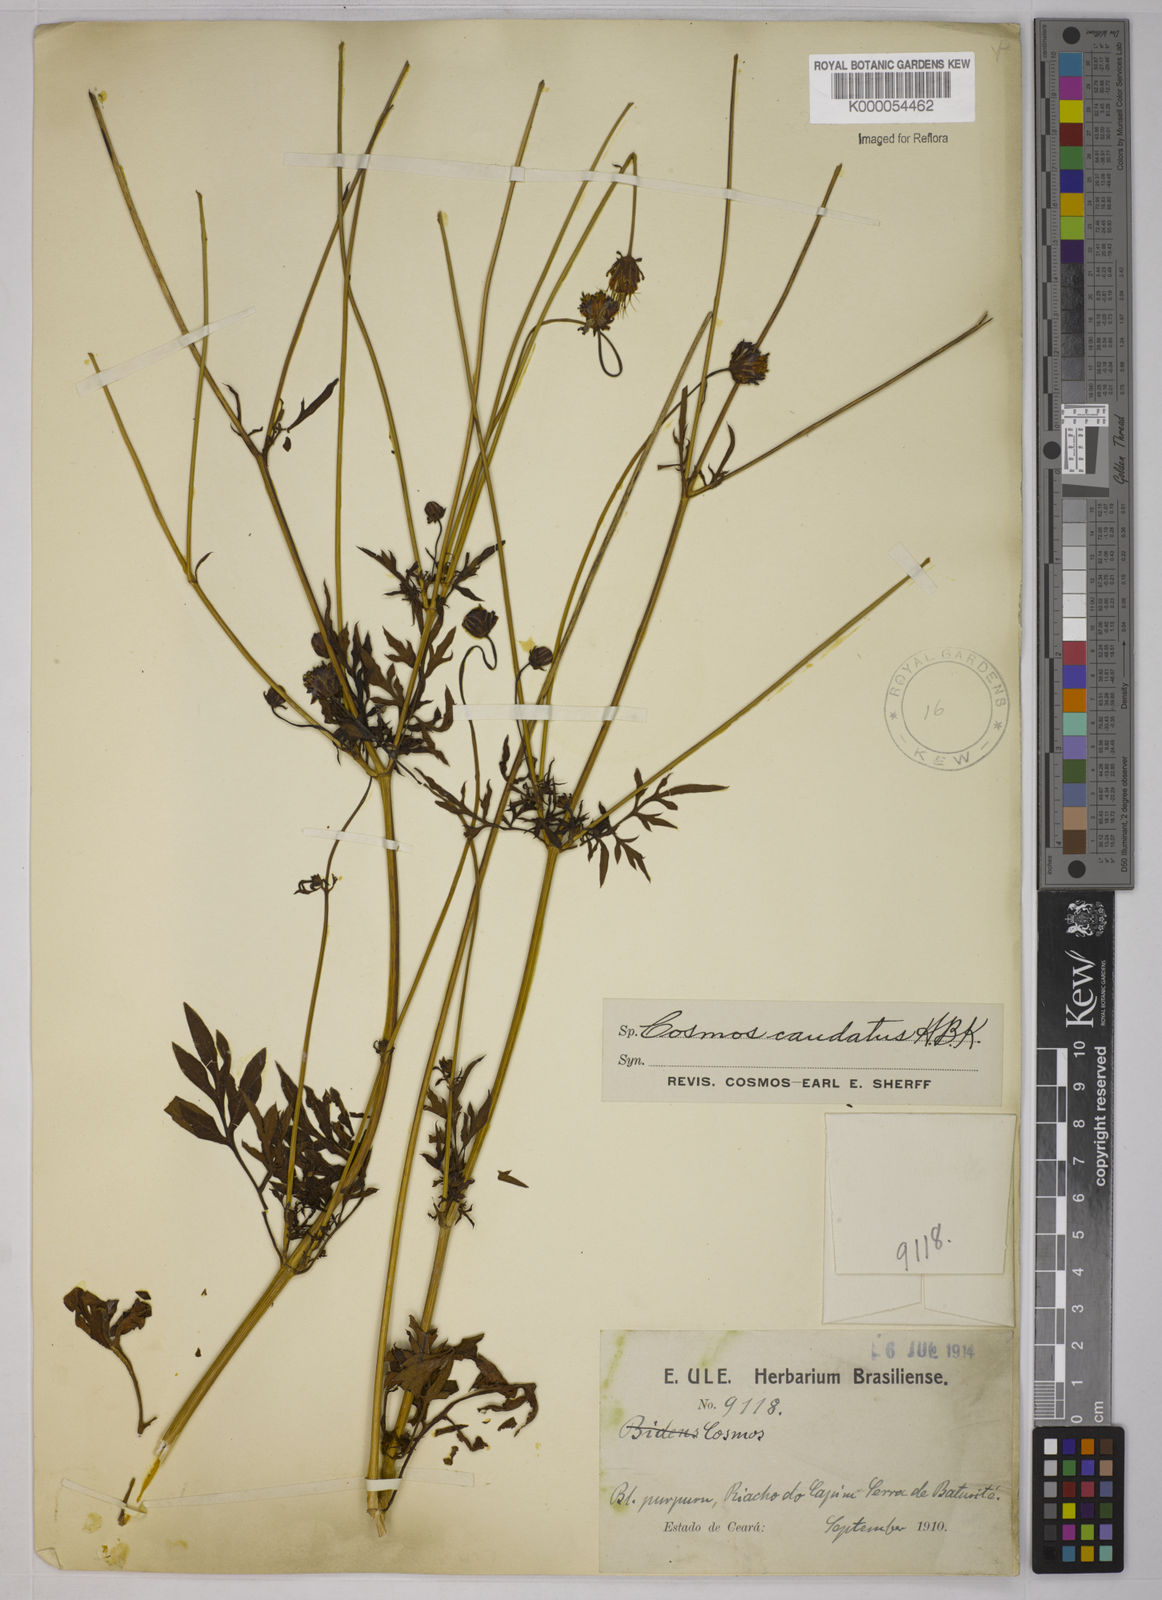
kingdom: Plantae
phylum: Tracheophyta
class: Magnoliopsida
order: Asterales
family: Asteraceae
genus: Cosmos
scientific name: Cosmos caudatus
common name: Wild cosmos
